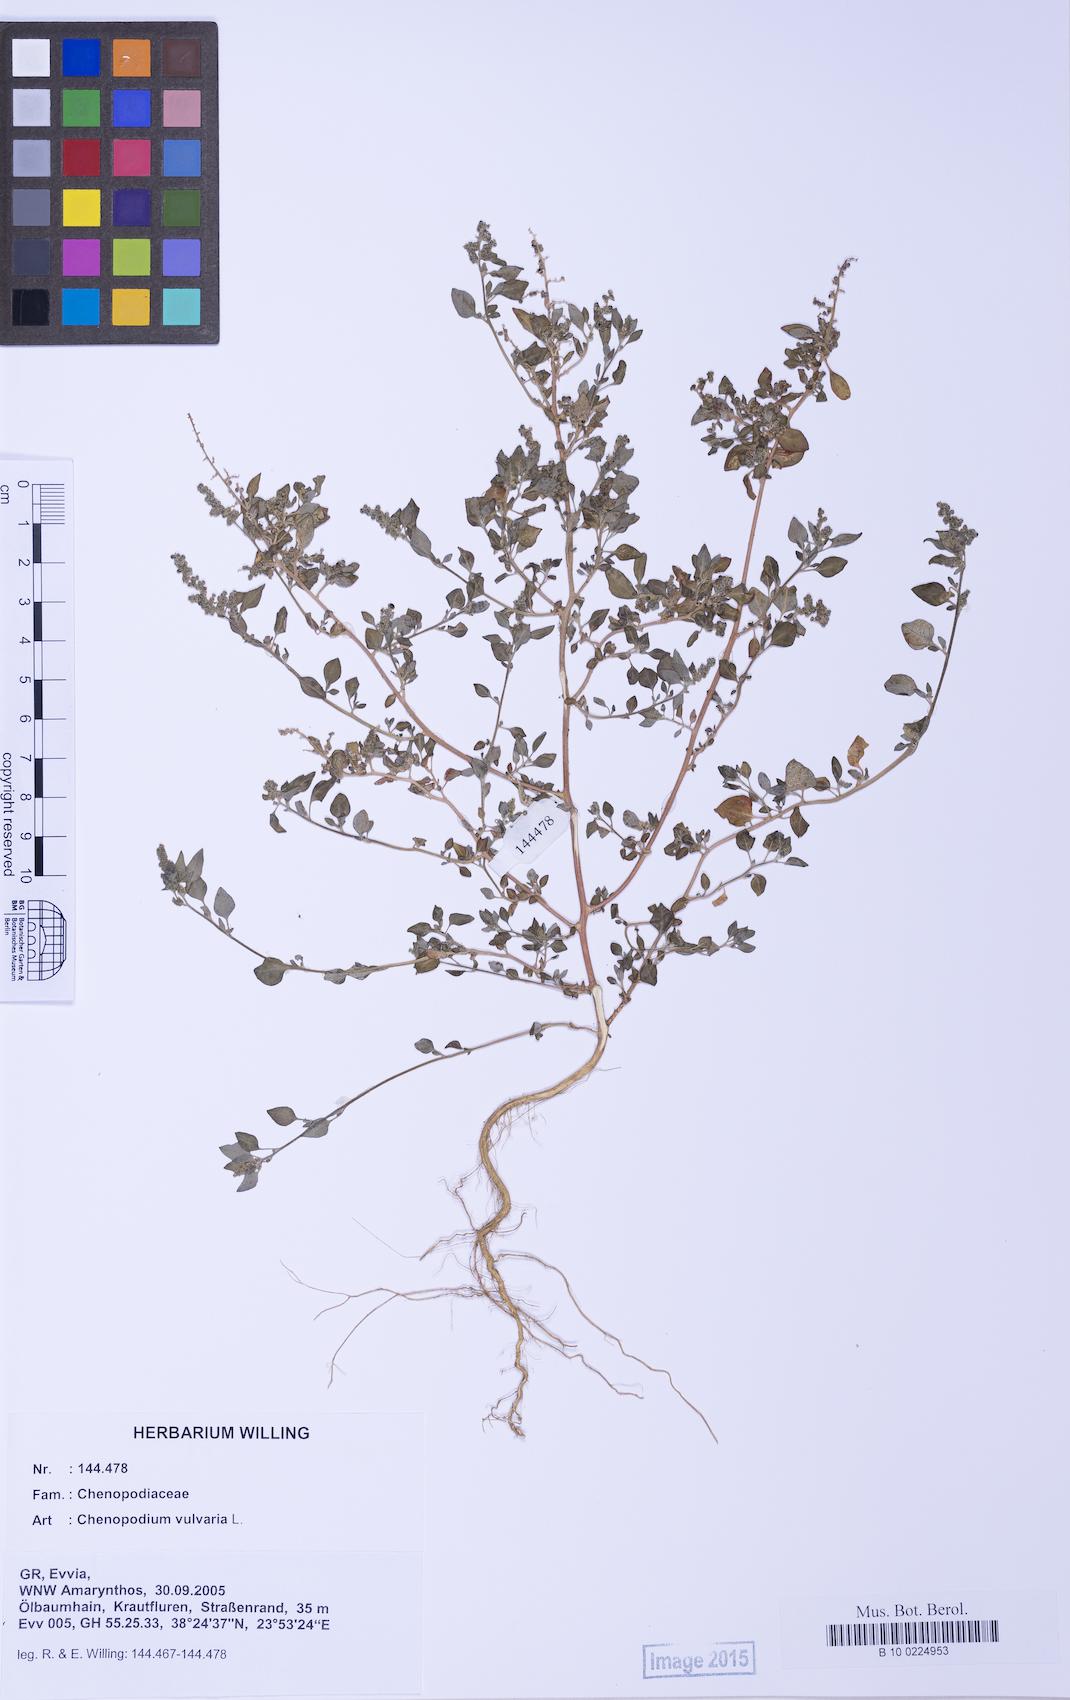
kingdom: Plantae
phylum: Tracheophyta
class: Magnoliopsida
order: Caryophyllales
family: Amaranthaceae
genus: Chenopodium
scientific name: Chenopodium vulvaria
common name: Stinking goosefoot
